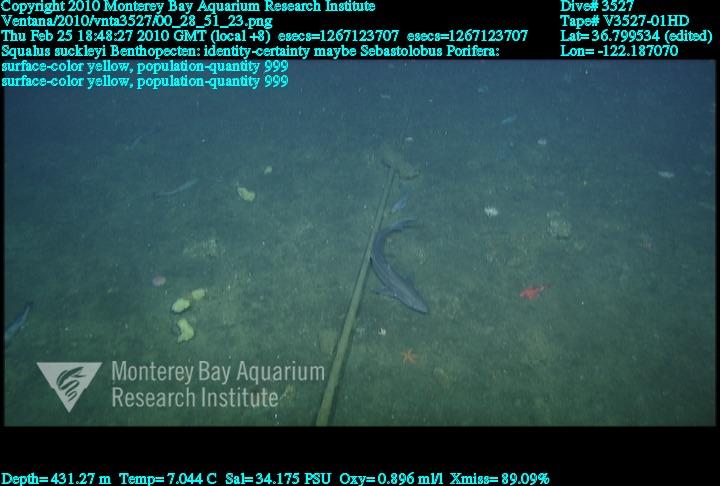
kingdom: Animalia
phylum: Porifera
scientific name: Porifera
